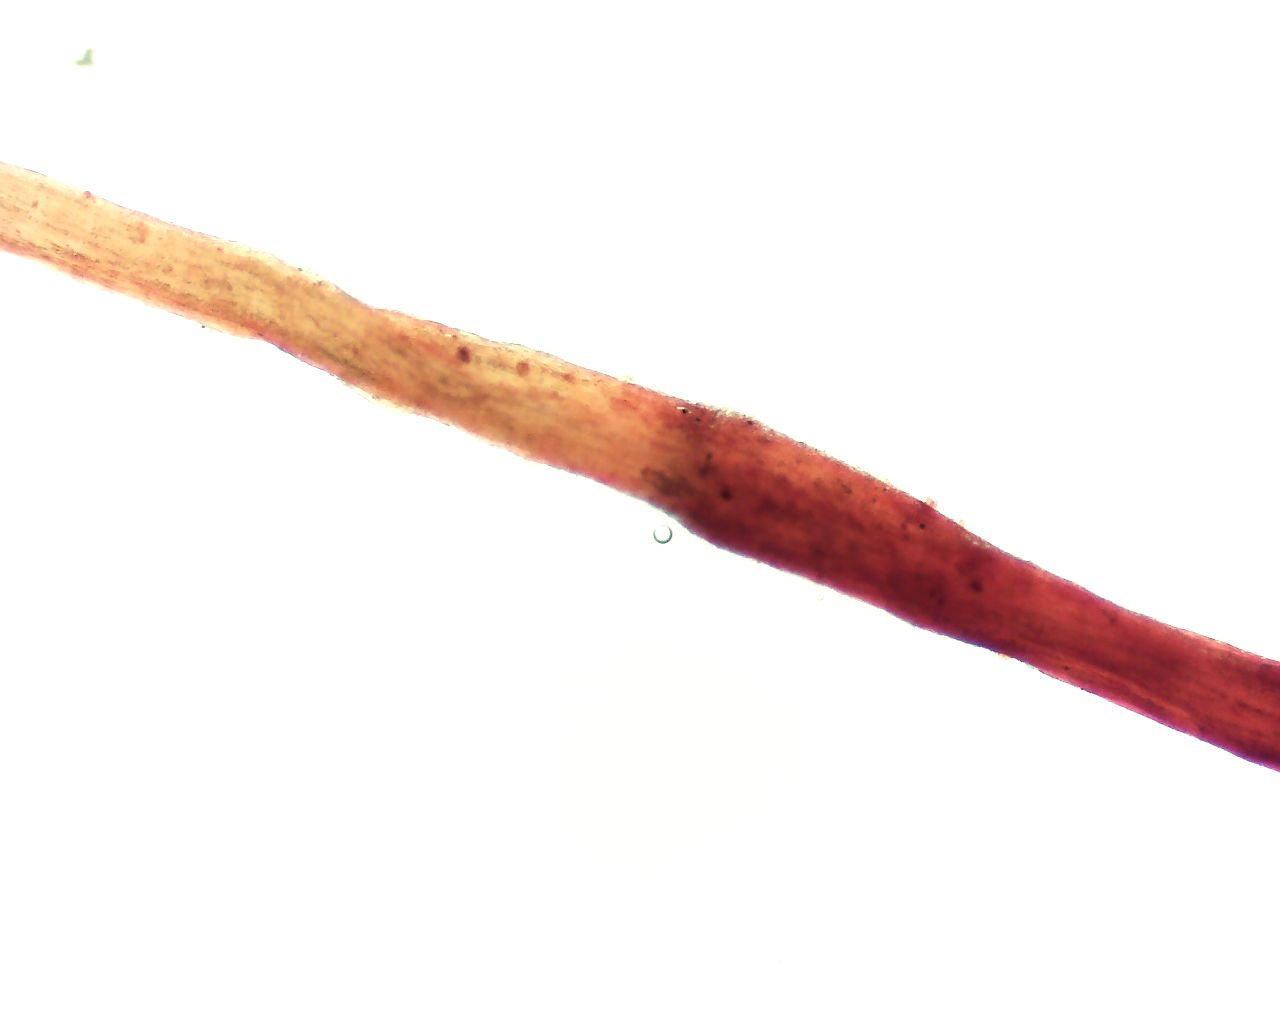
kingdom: Fungi
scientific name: Fungi
